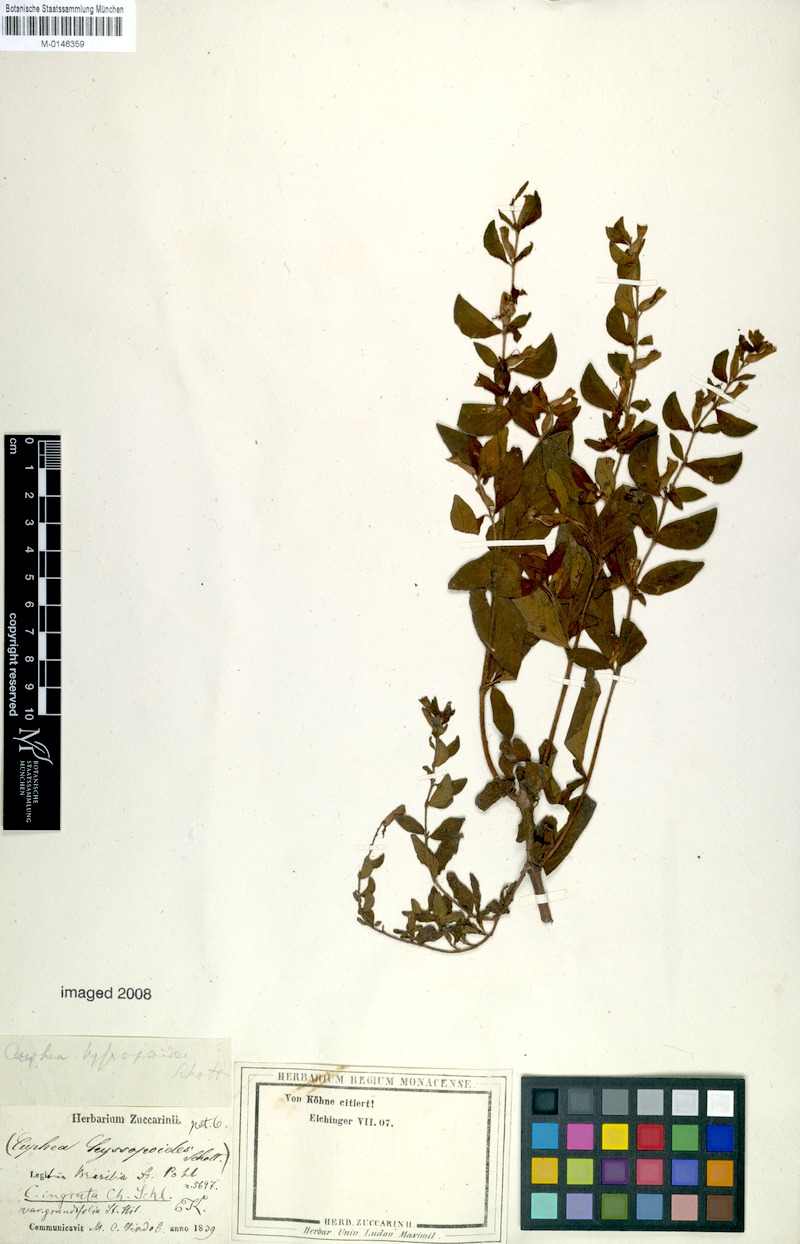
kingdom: Plantae
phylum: Tracheophyta
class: Magnoliopsida
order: Myrtales
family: Lythraceae
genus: Cuphea
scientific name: Cuphea ingrata
